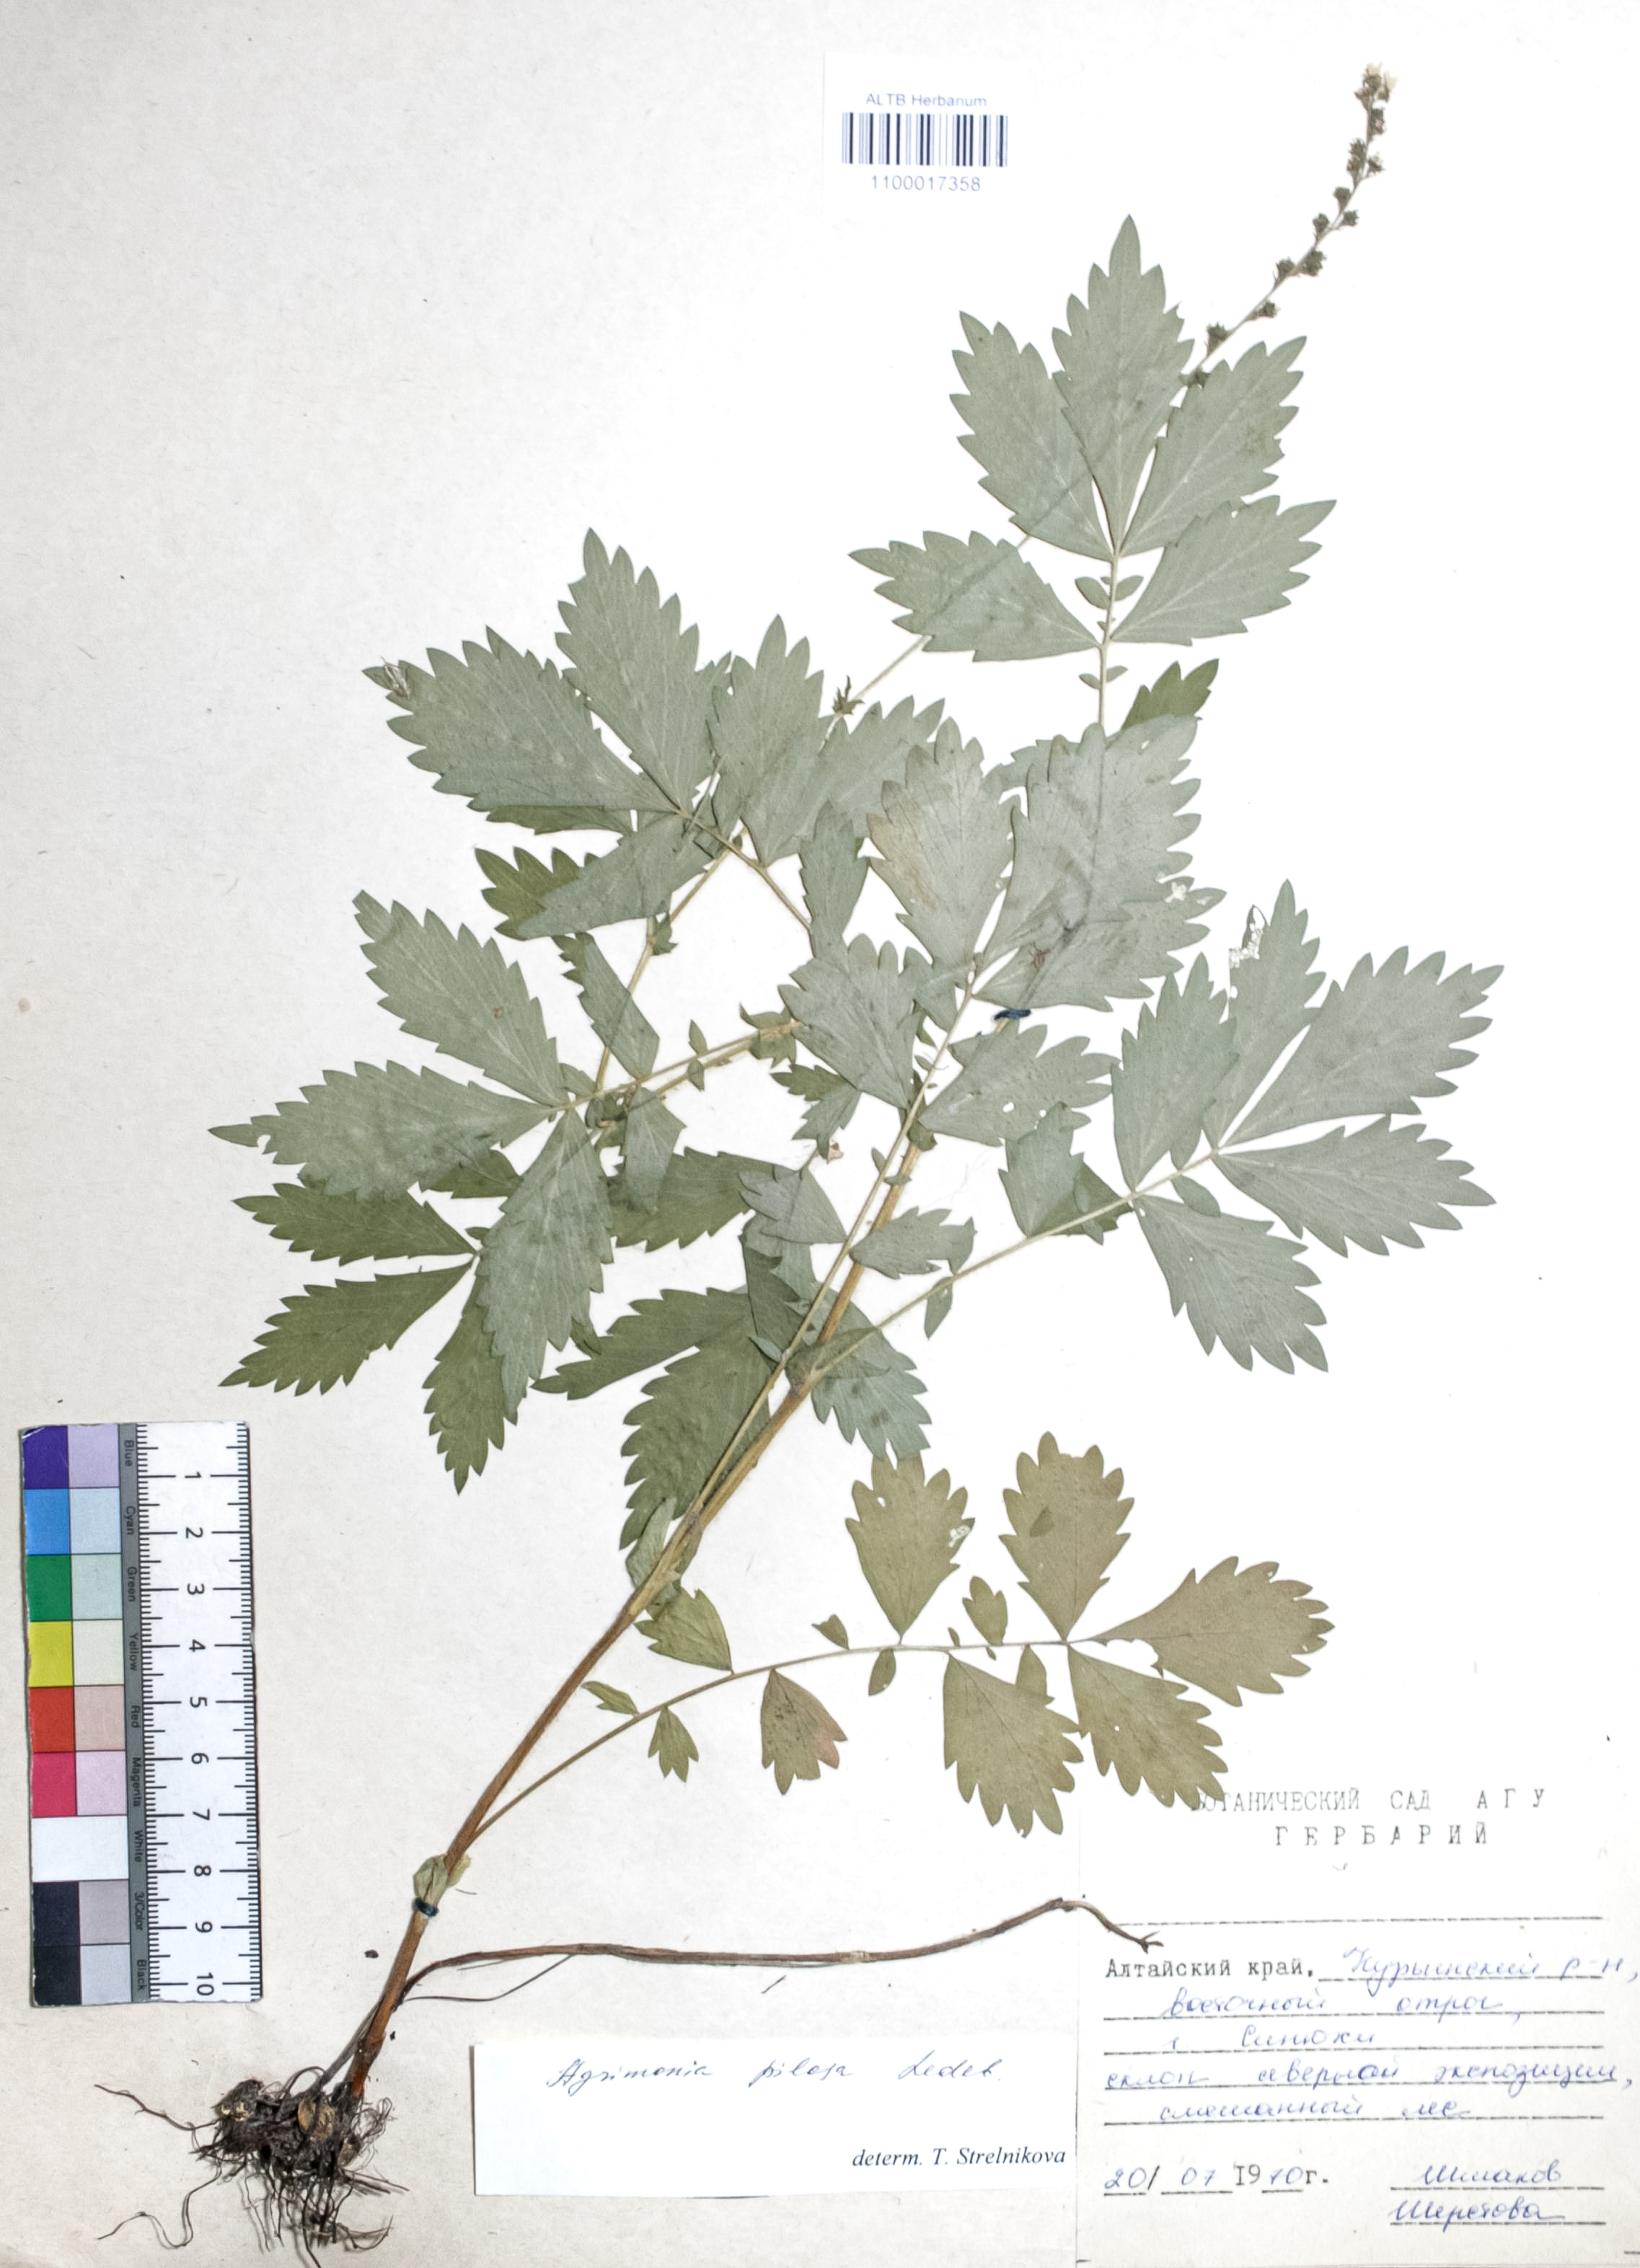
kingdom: Plantae
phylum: Tracheophyta
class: Magnoliopsida
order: Rosales
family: Rosaceae
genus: Agrimonia
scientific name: Agrimonia pilosa
